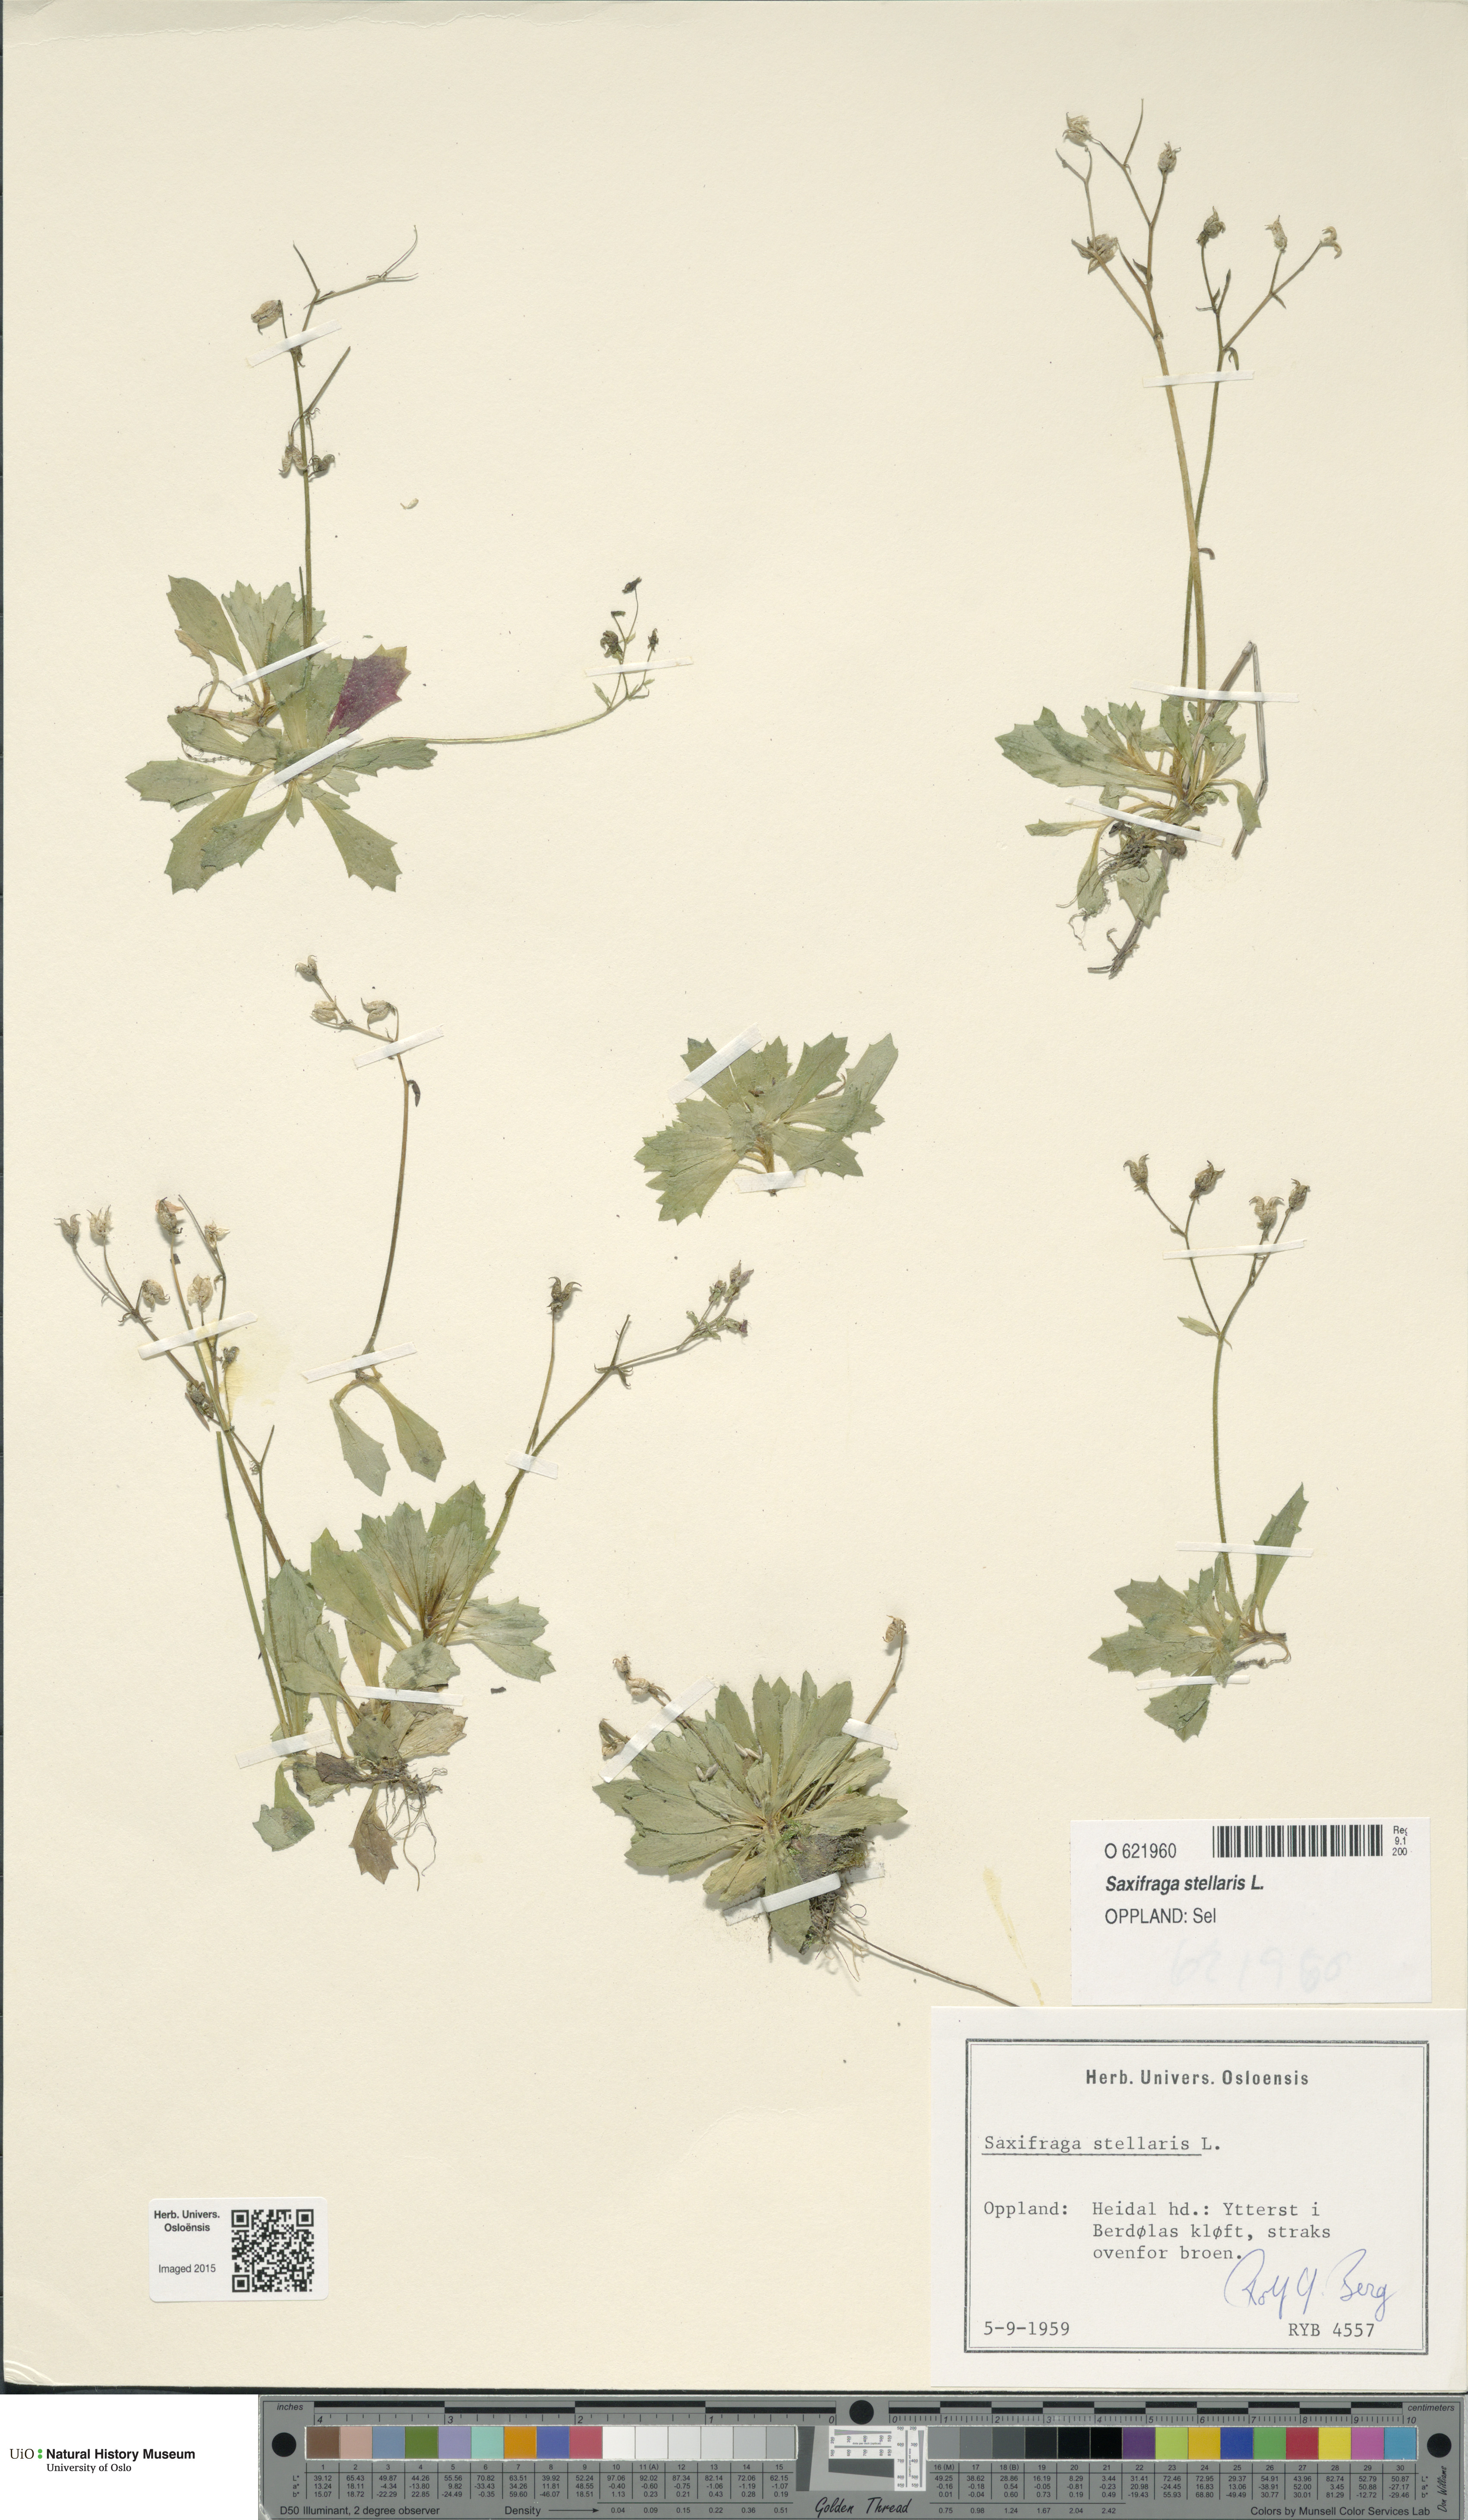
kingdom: Plantae
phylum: Tracheophyta
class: Magnoliopsida
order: Saxifragales
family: Saxifragaceae
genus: Micranthes
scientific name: Micranthes stellaris
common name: Starry saxifrage
